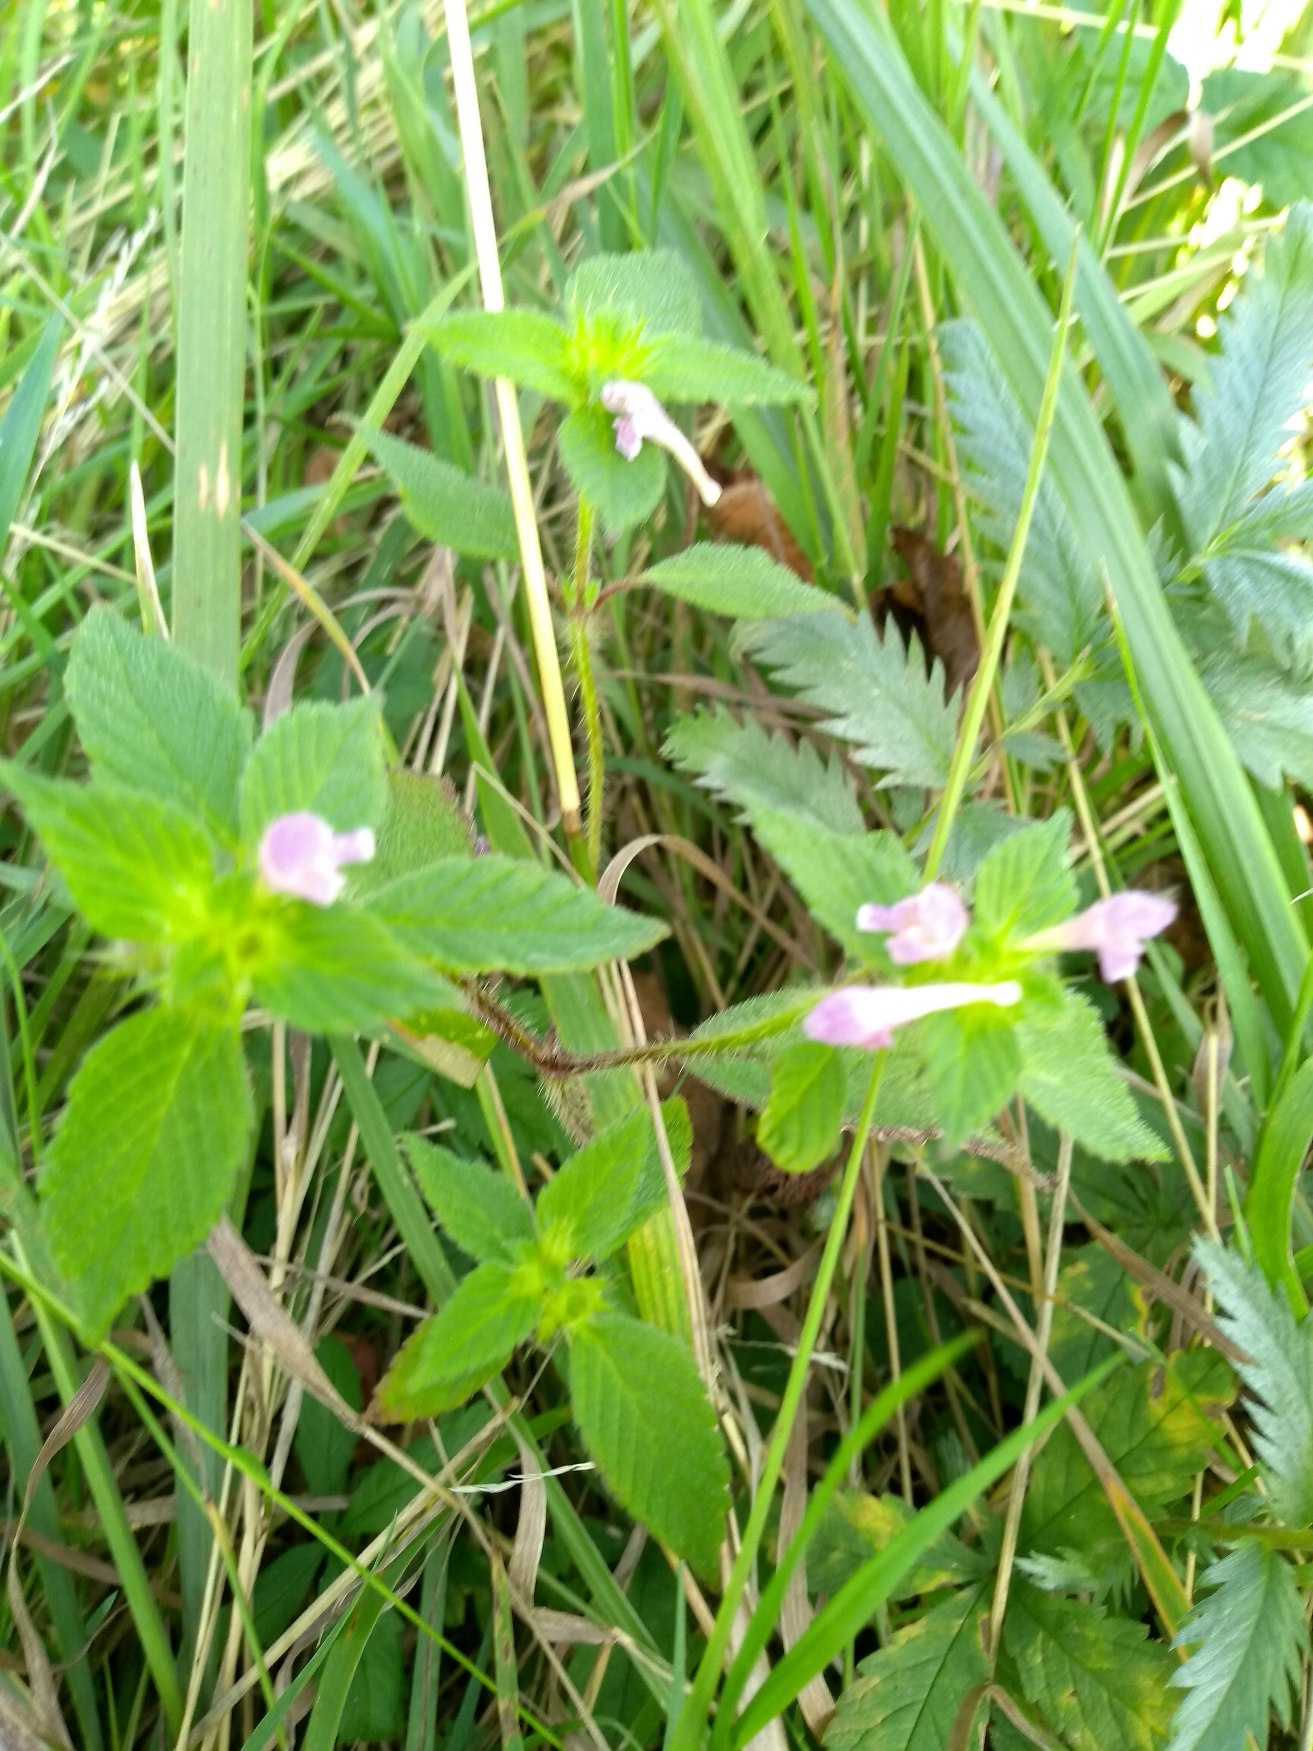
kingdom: Plantae
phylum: Tracheophyta
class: Magnoliopsida
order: Lamiales
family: Lamiaceae
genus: Galeopsis
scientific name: Galeopsis bifida
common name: Skov-hanekro
